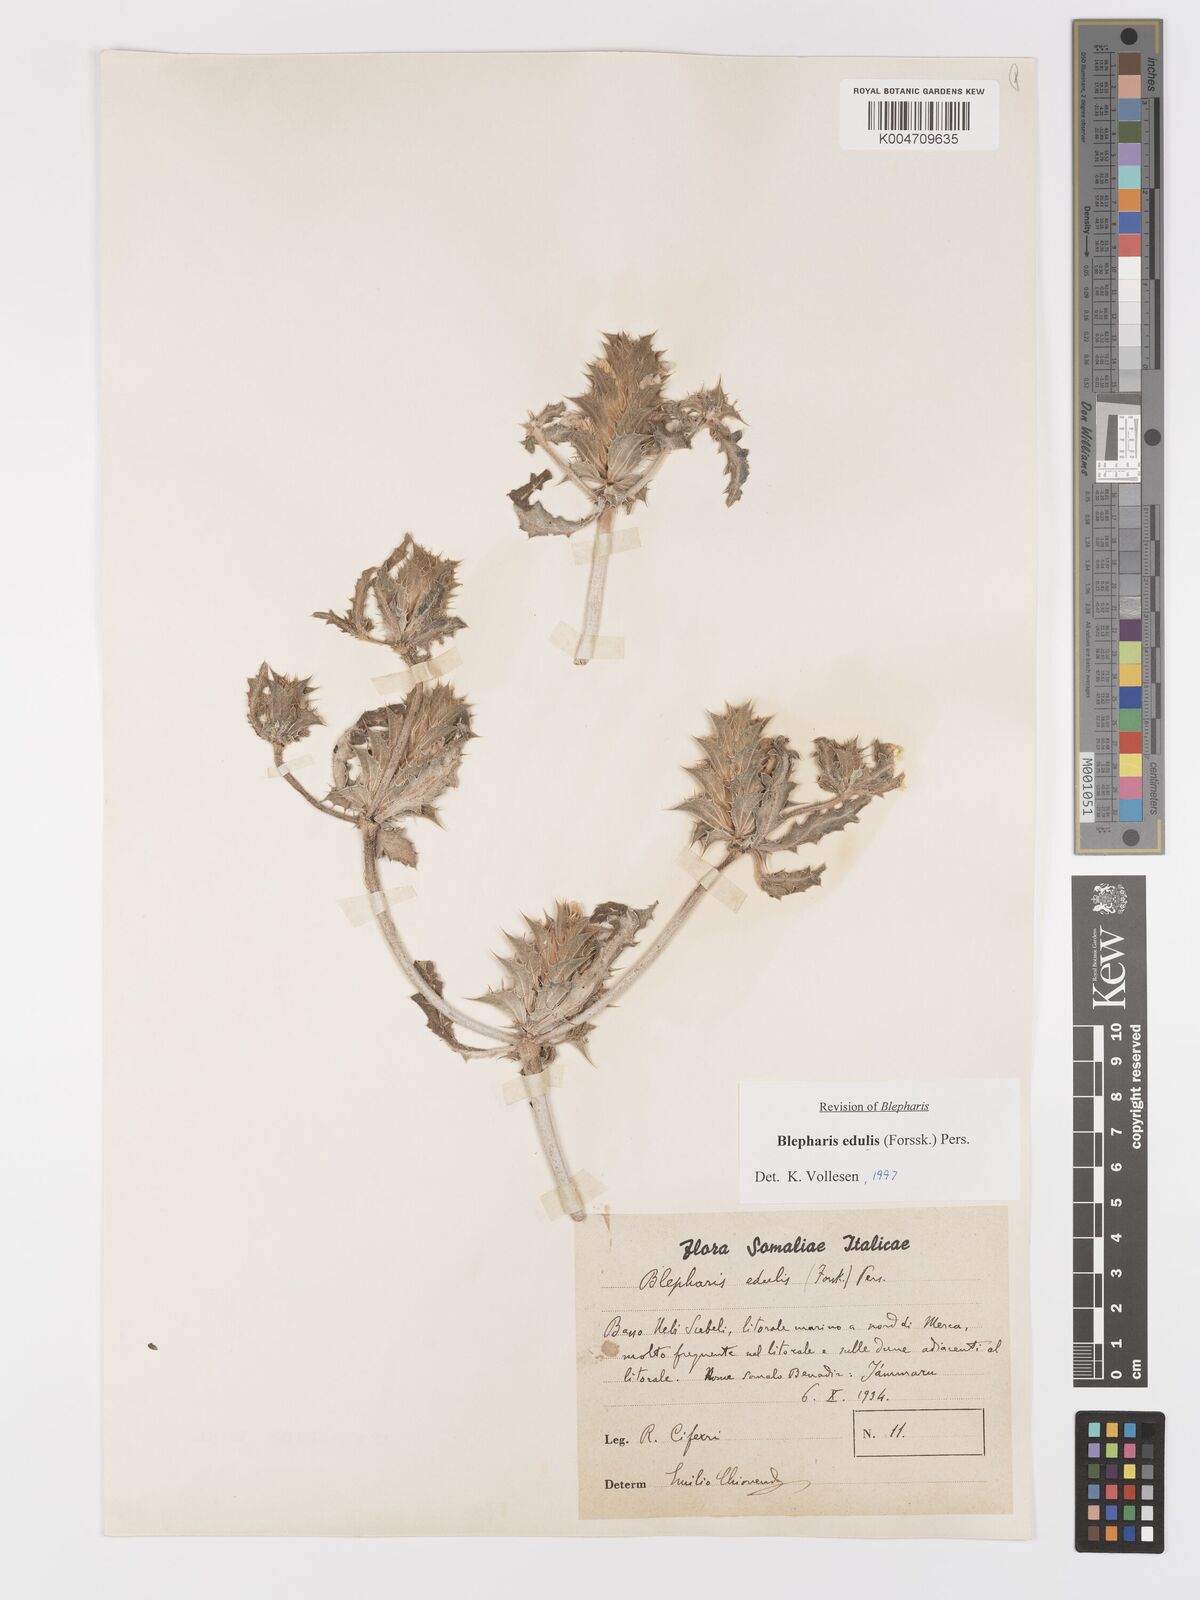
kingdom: Plantae
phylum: Tracheophyta
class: Magnoliopsida
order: Lamiales
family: Acanthaceae
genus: Blepharis
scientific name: Blepharis edulis
